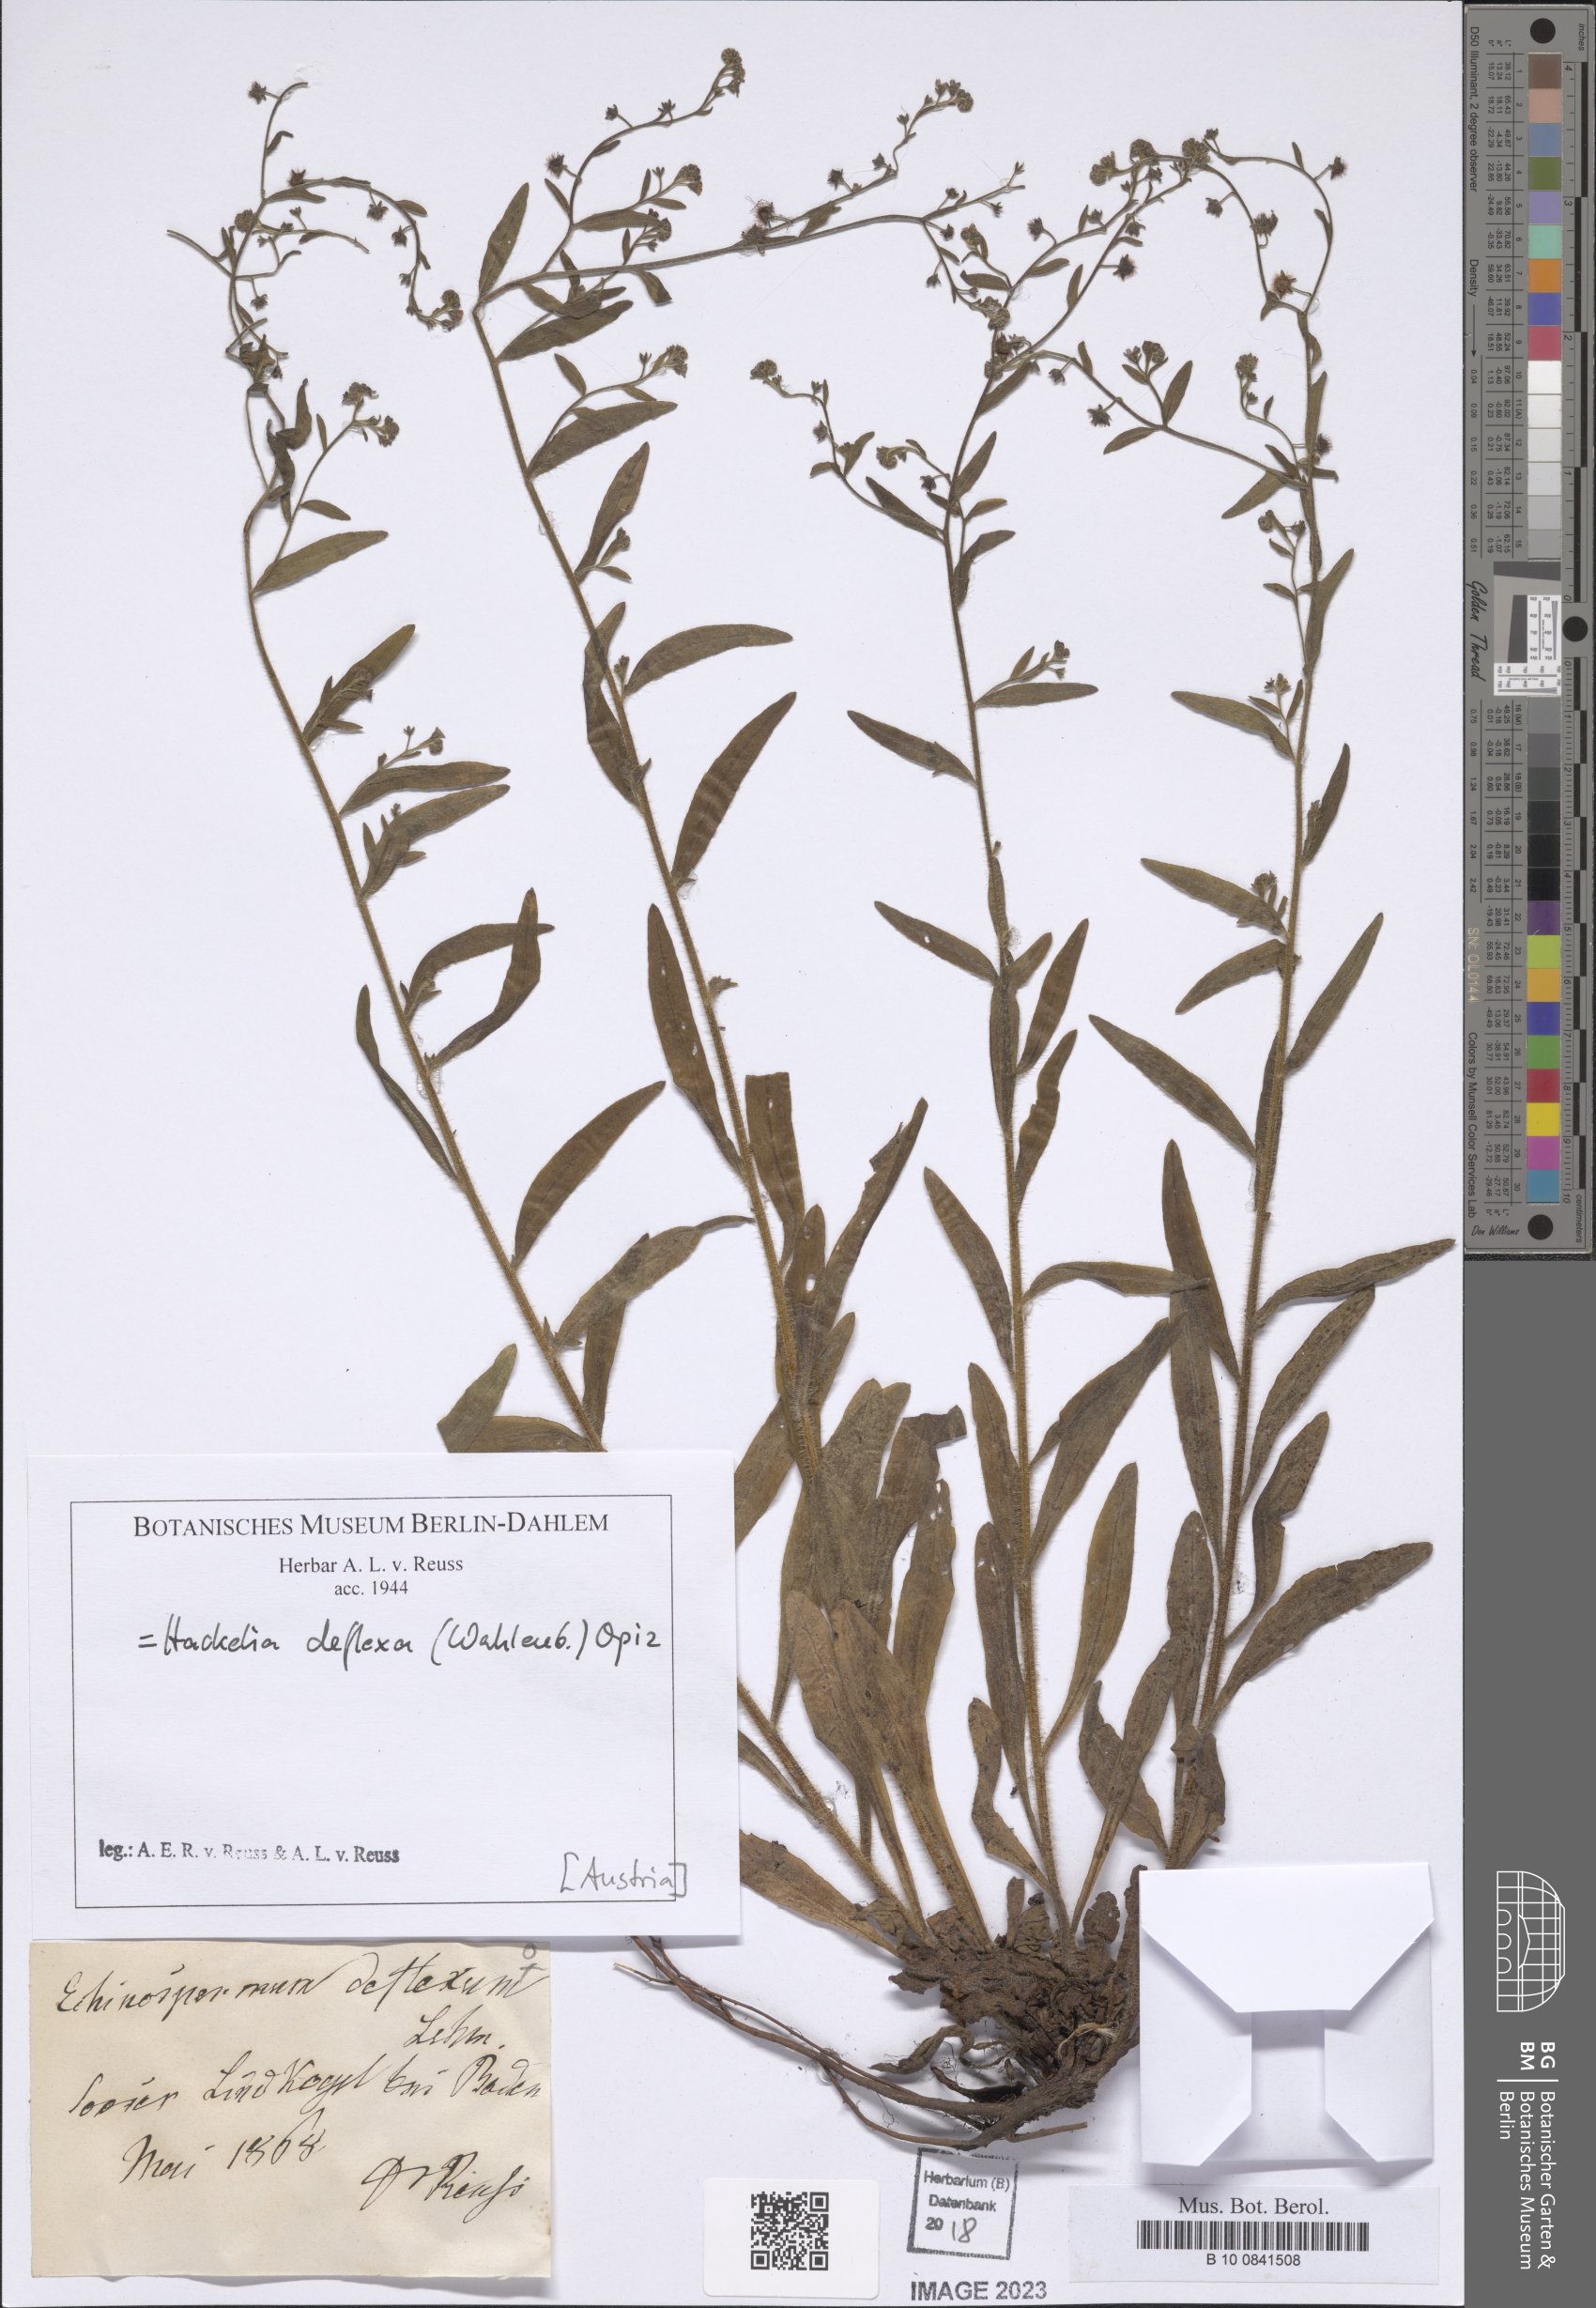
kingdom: Plantae
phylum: Tracheophyta
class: Magnoliopsida
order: Boraginales
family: Boraginaceae
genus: Hackelia
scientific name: Hackelia deflexa
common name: Nodding stickseed
